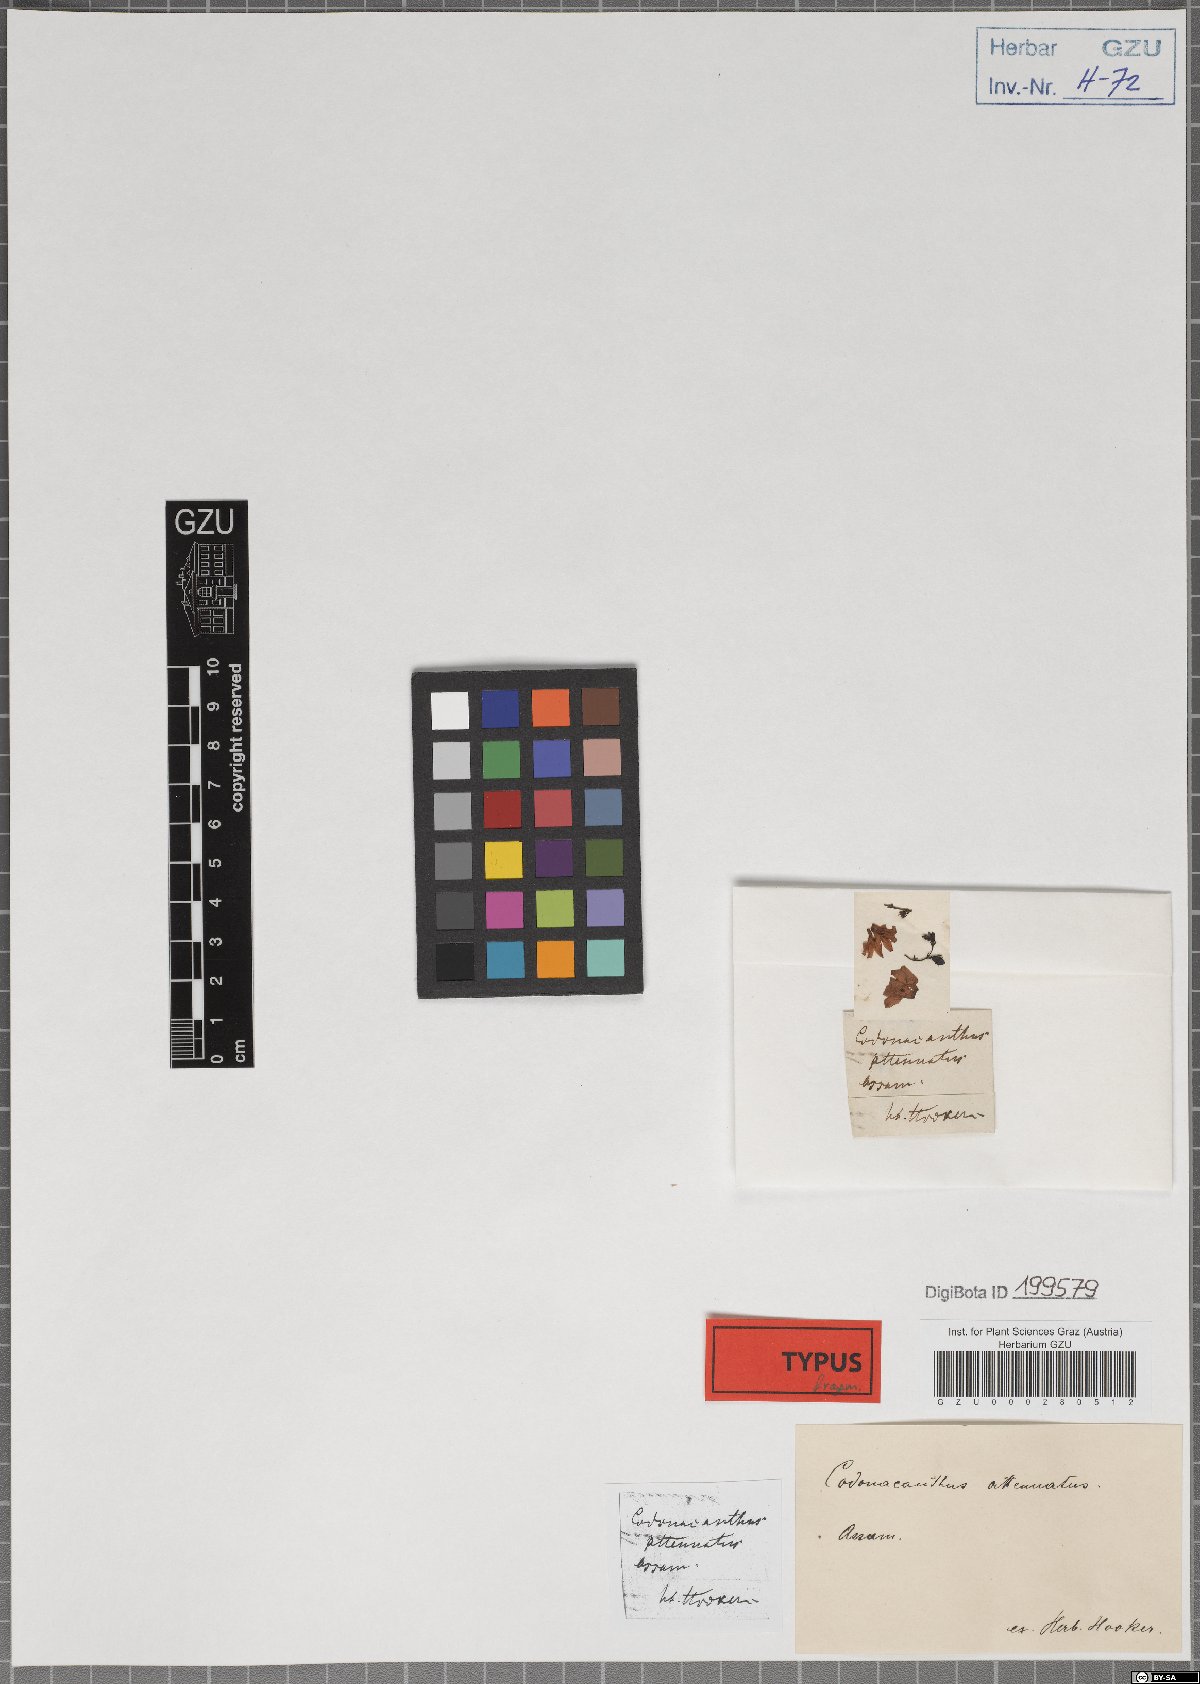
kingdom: Plantae
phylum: Tracheophyta
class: Magnoliopsida
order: Lamiales
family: Acanthaceae
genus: Codonacanthus
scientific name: Codonacanthus pauciflorus
